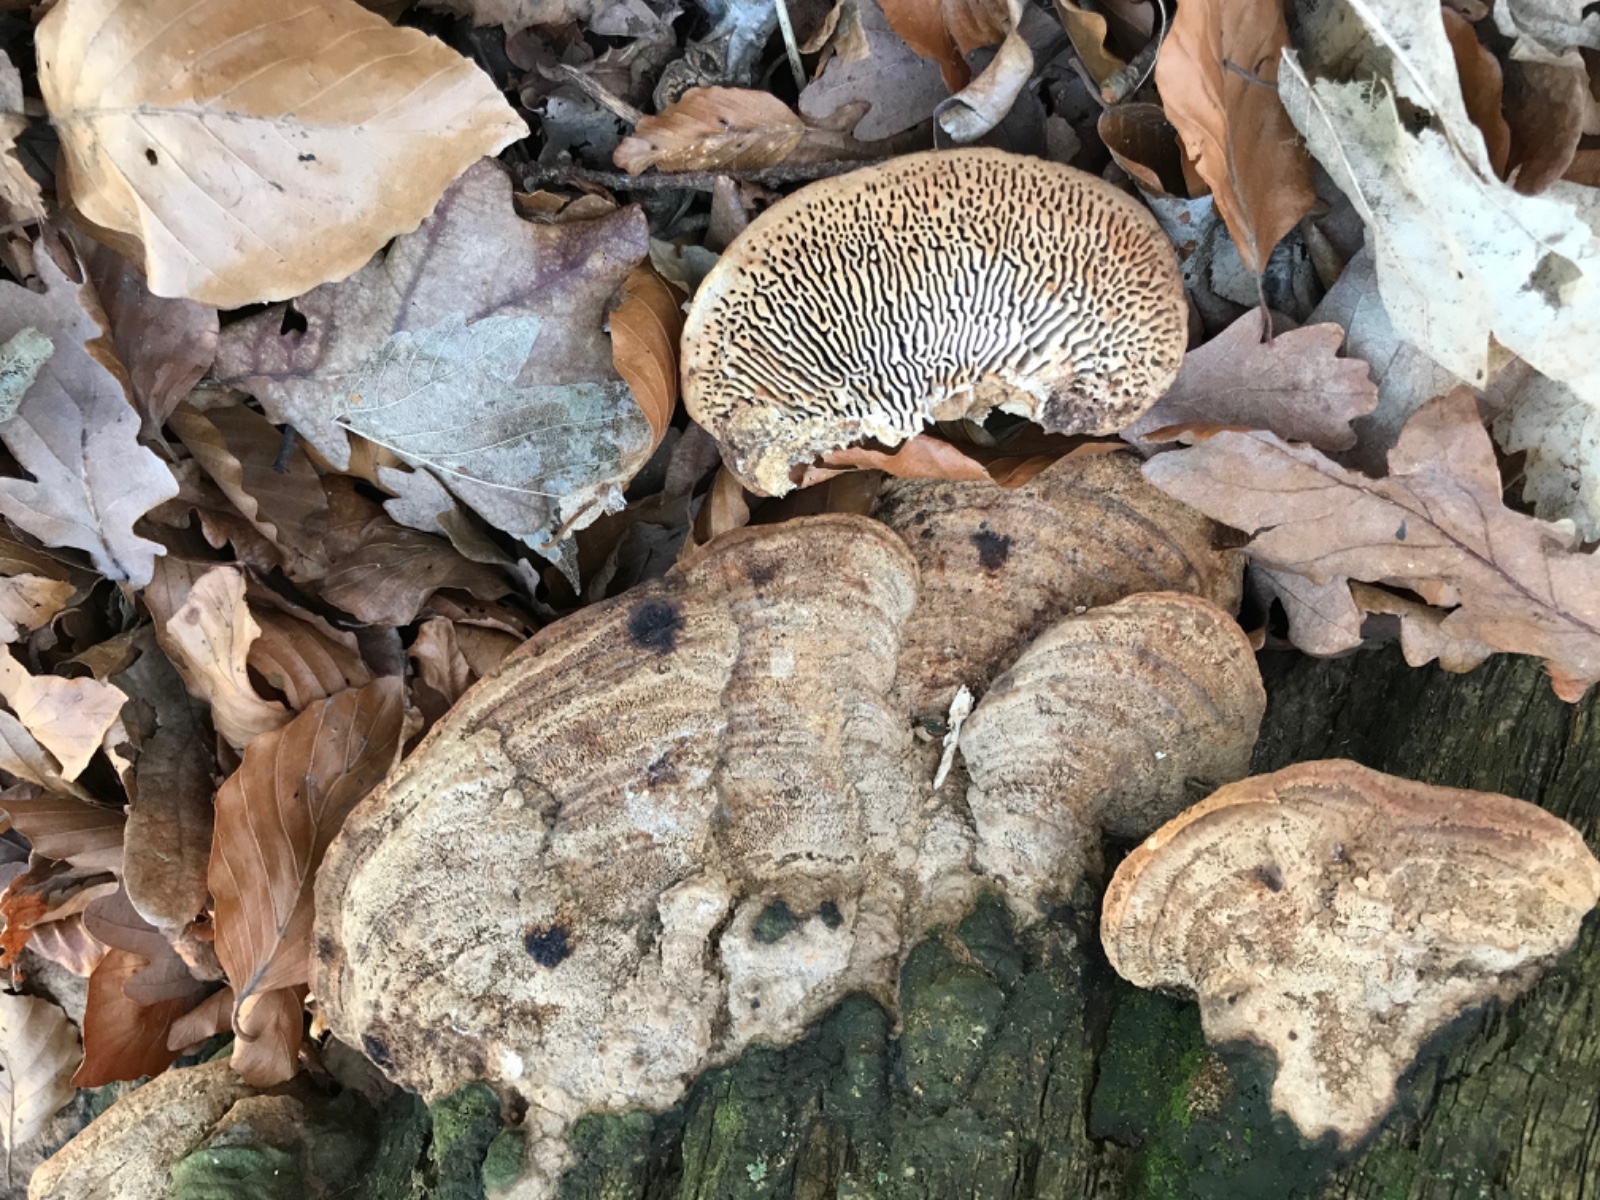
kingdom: Fungi
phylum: Basidiomycota
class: Agaricomycetes
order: Polyporales
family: Fomitopsidaceae
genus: Daedalea
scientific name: Daedalea quercina
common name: ege-labyrintsvamp
